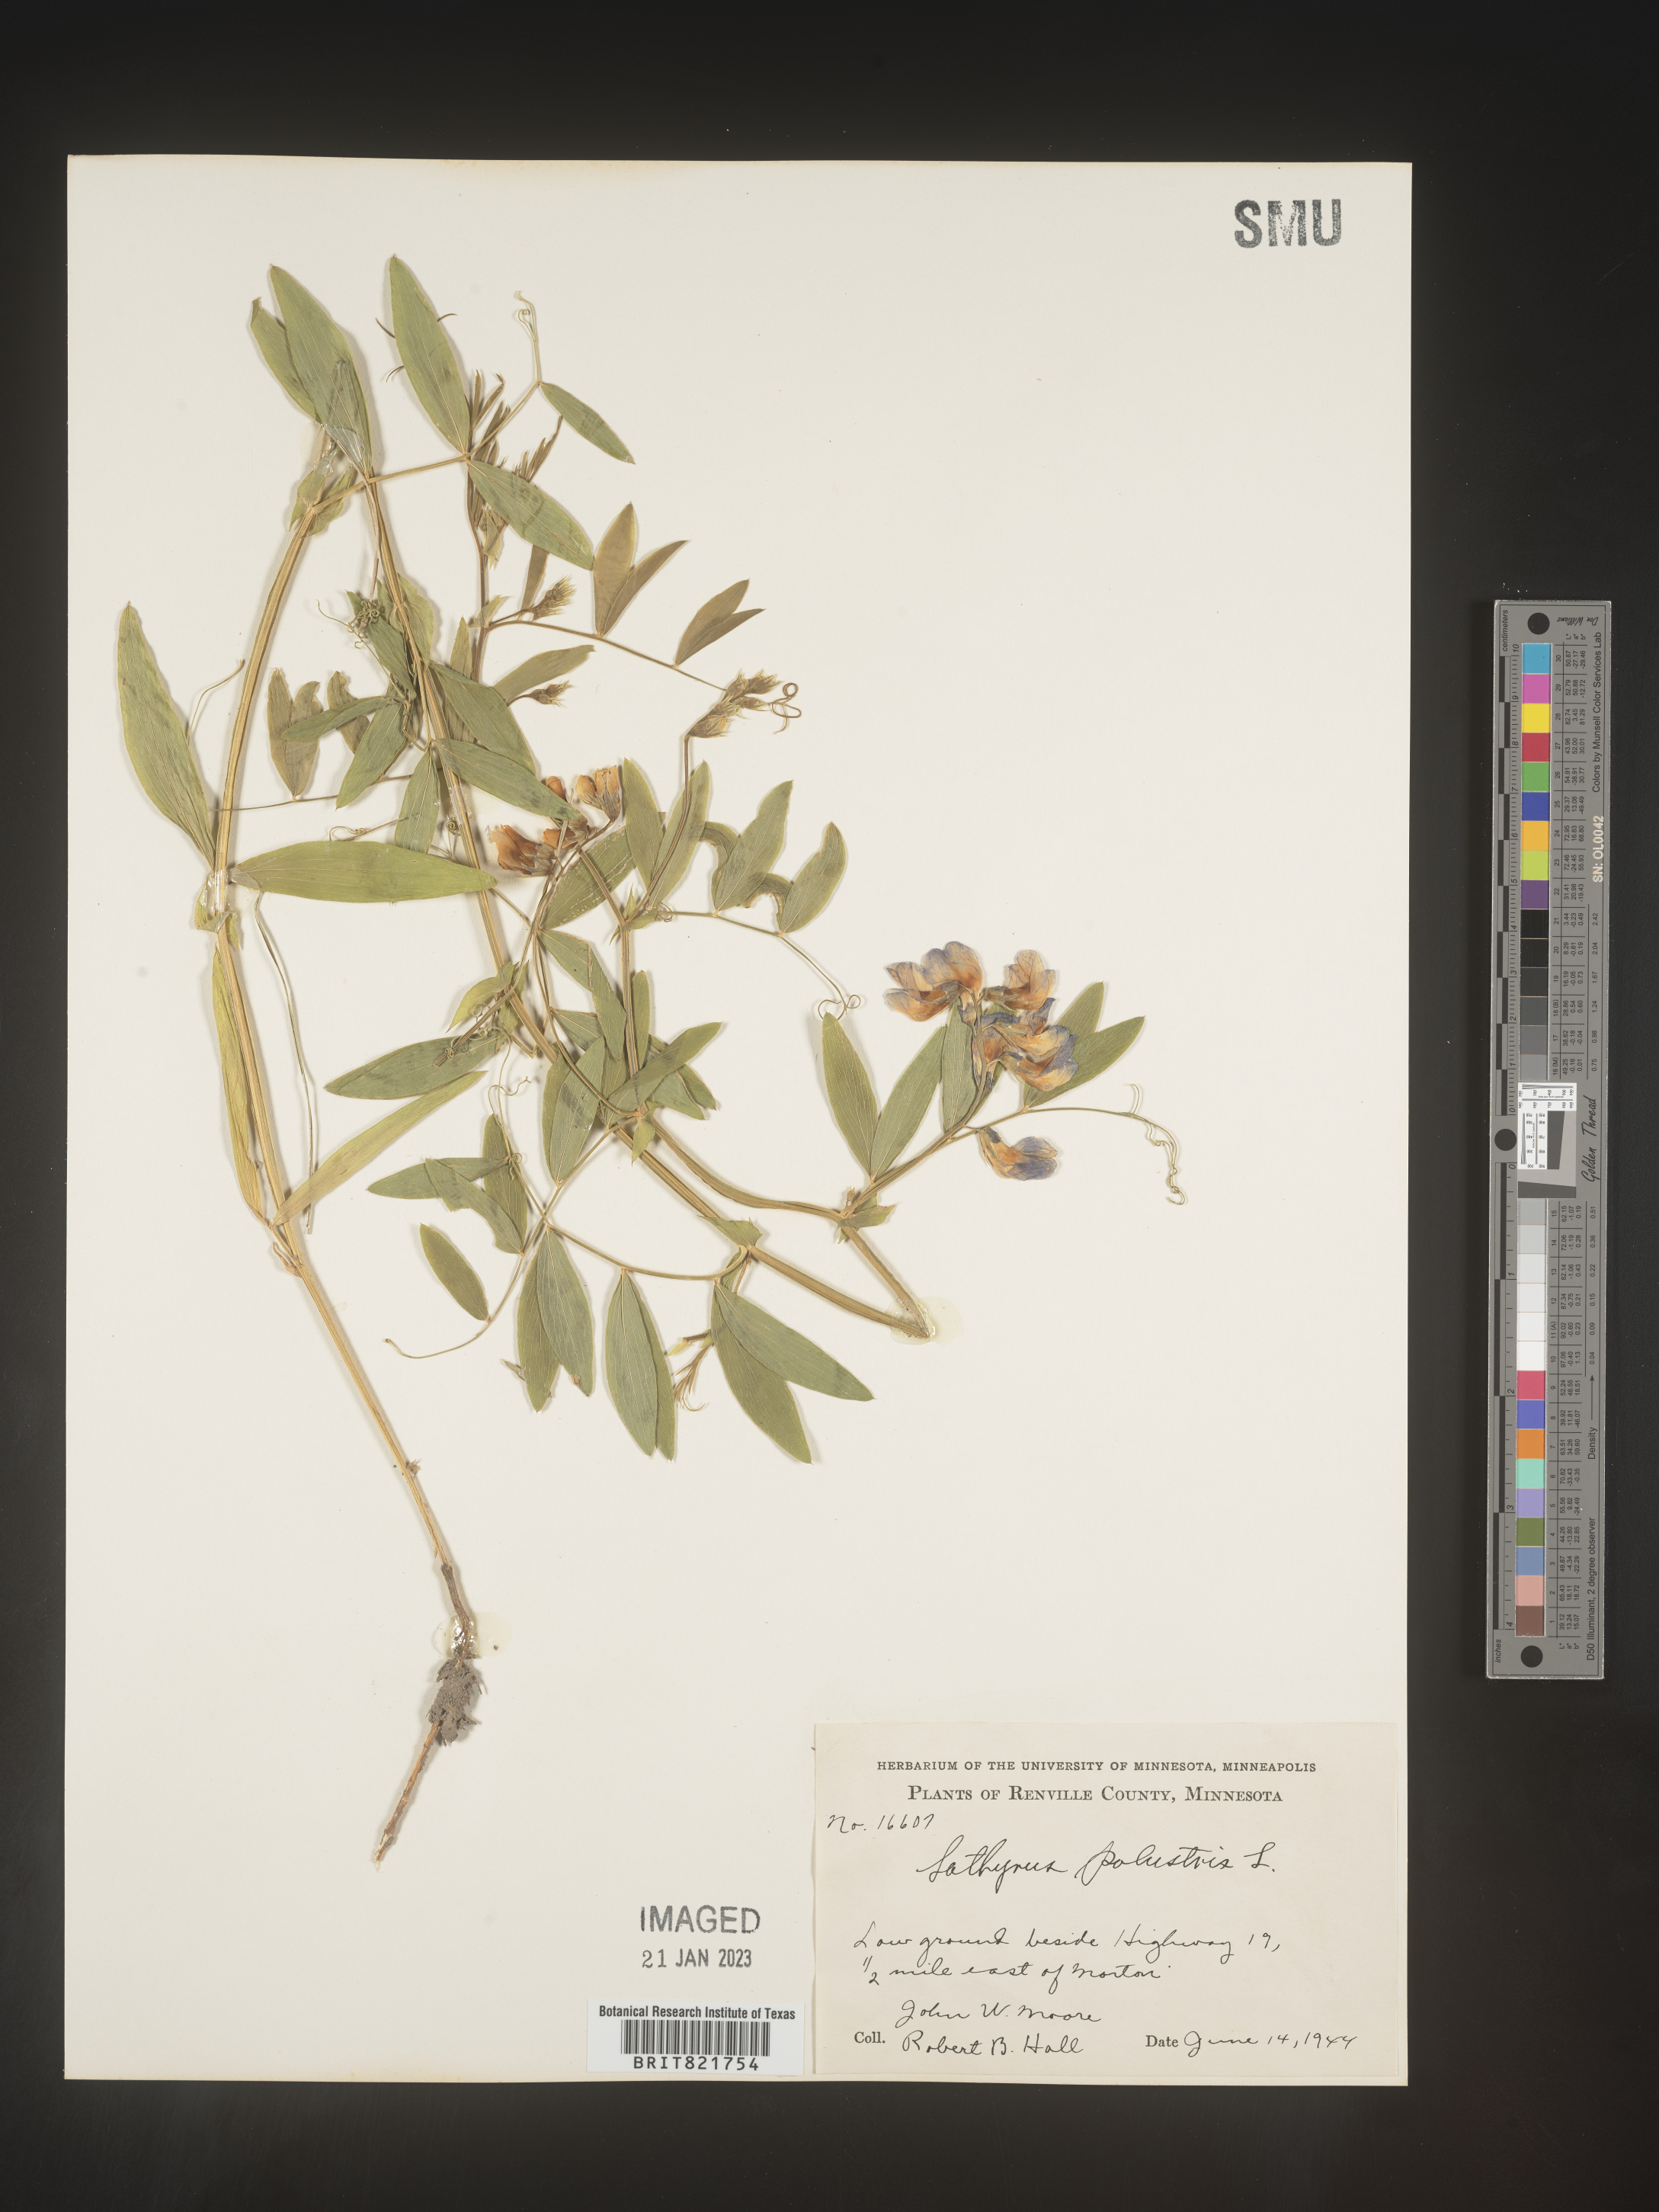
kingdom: Plantae
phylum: Tracheophyta
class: Magnoliopsida
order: Fabales
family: Fabaceae
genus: Lathyrus
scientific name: Lathyrus palustris
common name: Marsh pea
